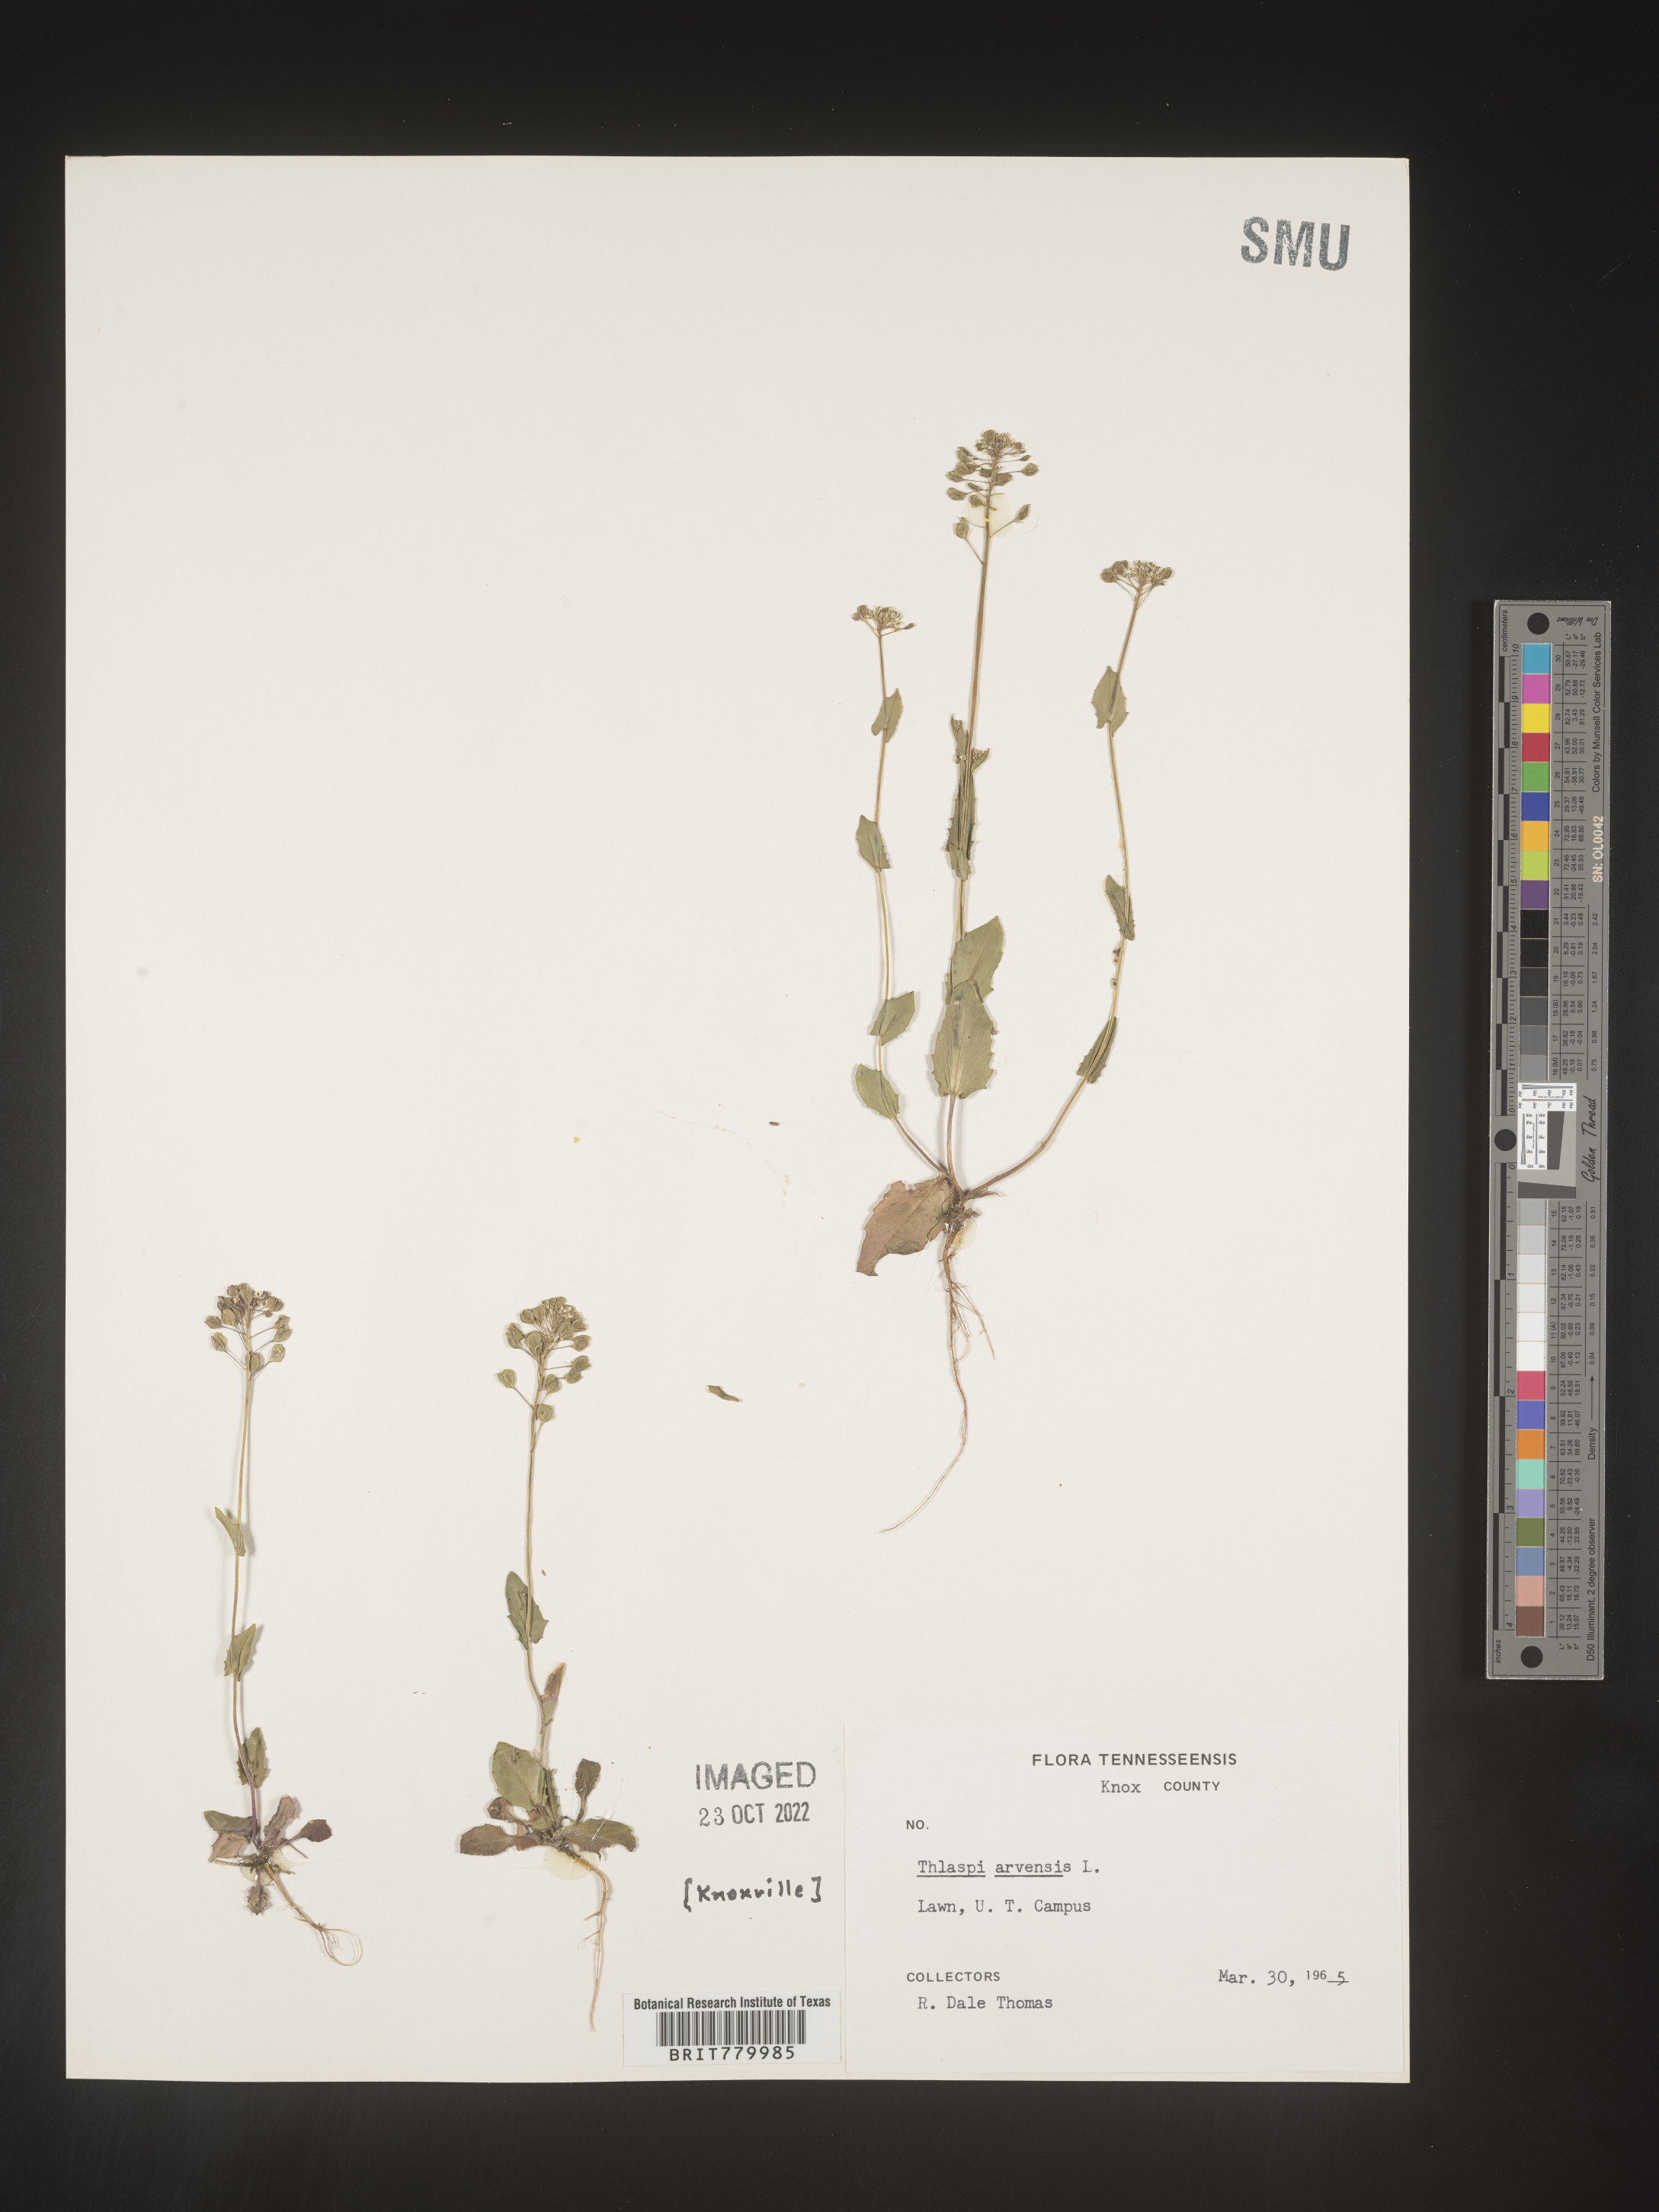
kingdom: Plantae
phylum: Tracheophyta
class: Magnoliopsida
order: Brassicales
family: Brassicaceae
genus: Thlaspi
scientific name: Thlaspi arvense
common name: Field pennycress
